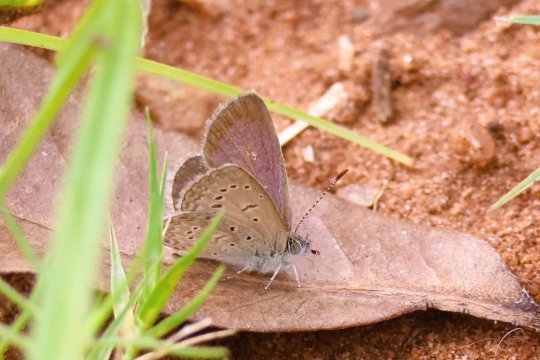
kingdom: Animalia
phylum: Arthropoda
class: Insecta
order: Lepidoptera
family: Lycaenidae
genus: Zizeeria
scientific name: Zizeeria knysna
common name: Dark Grass Blue
